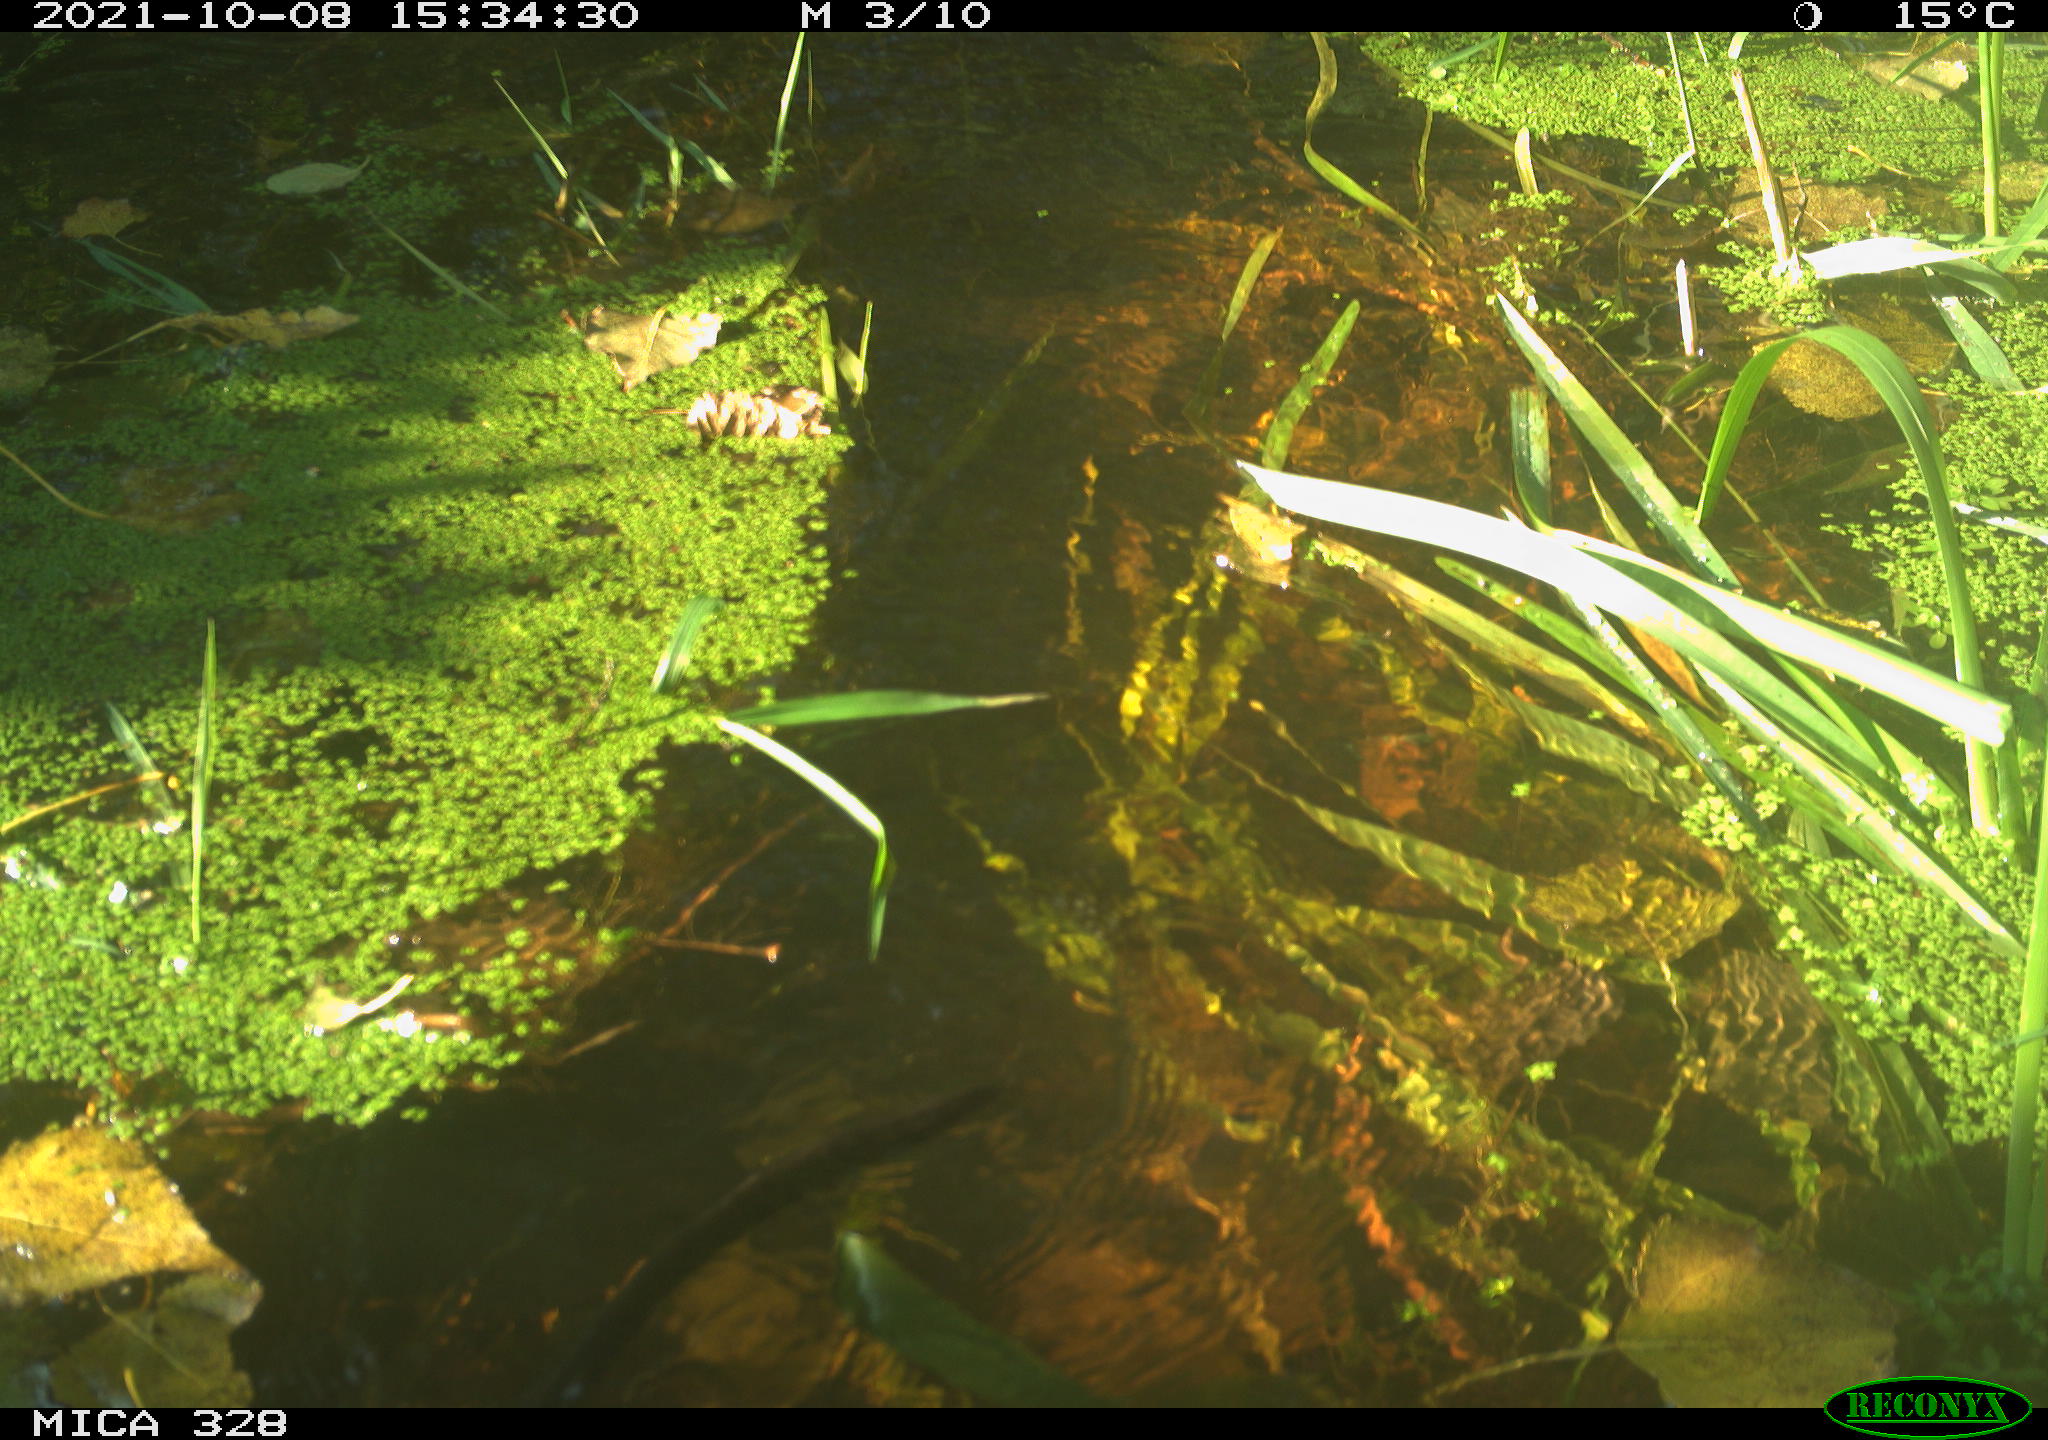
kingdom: Animalia
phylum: Chordata
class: Mammalia
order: Rodentia
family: Cricetidae
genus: Ondatra
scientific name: Ondatra zibethicus
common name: Muskrat
